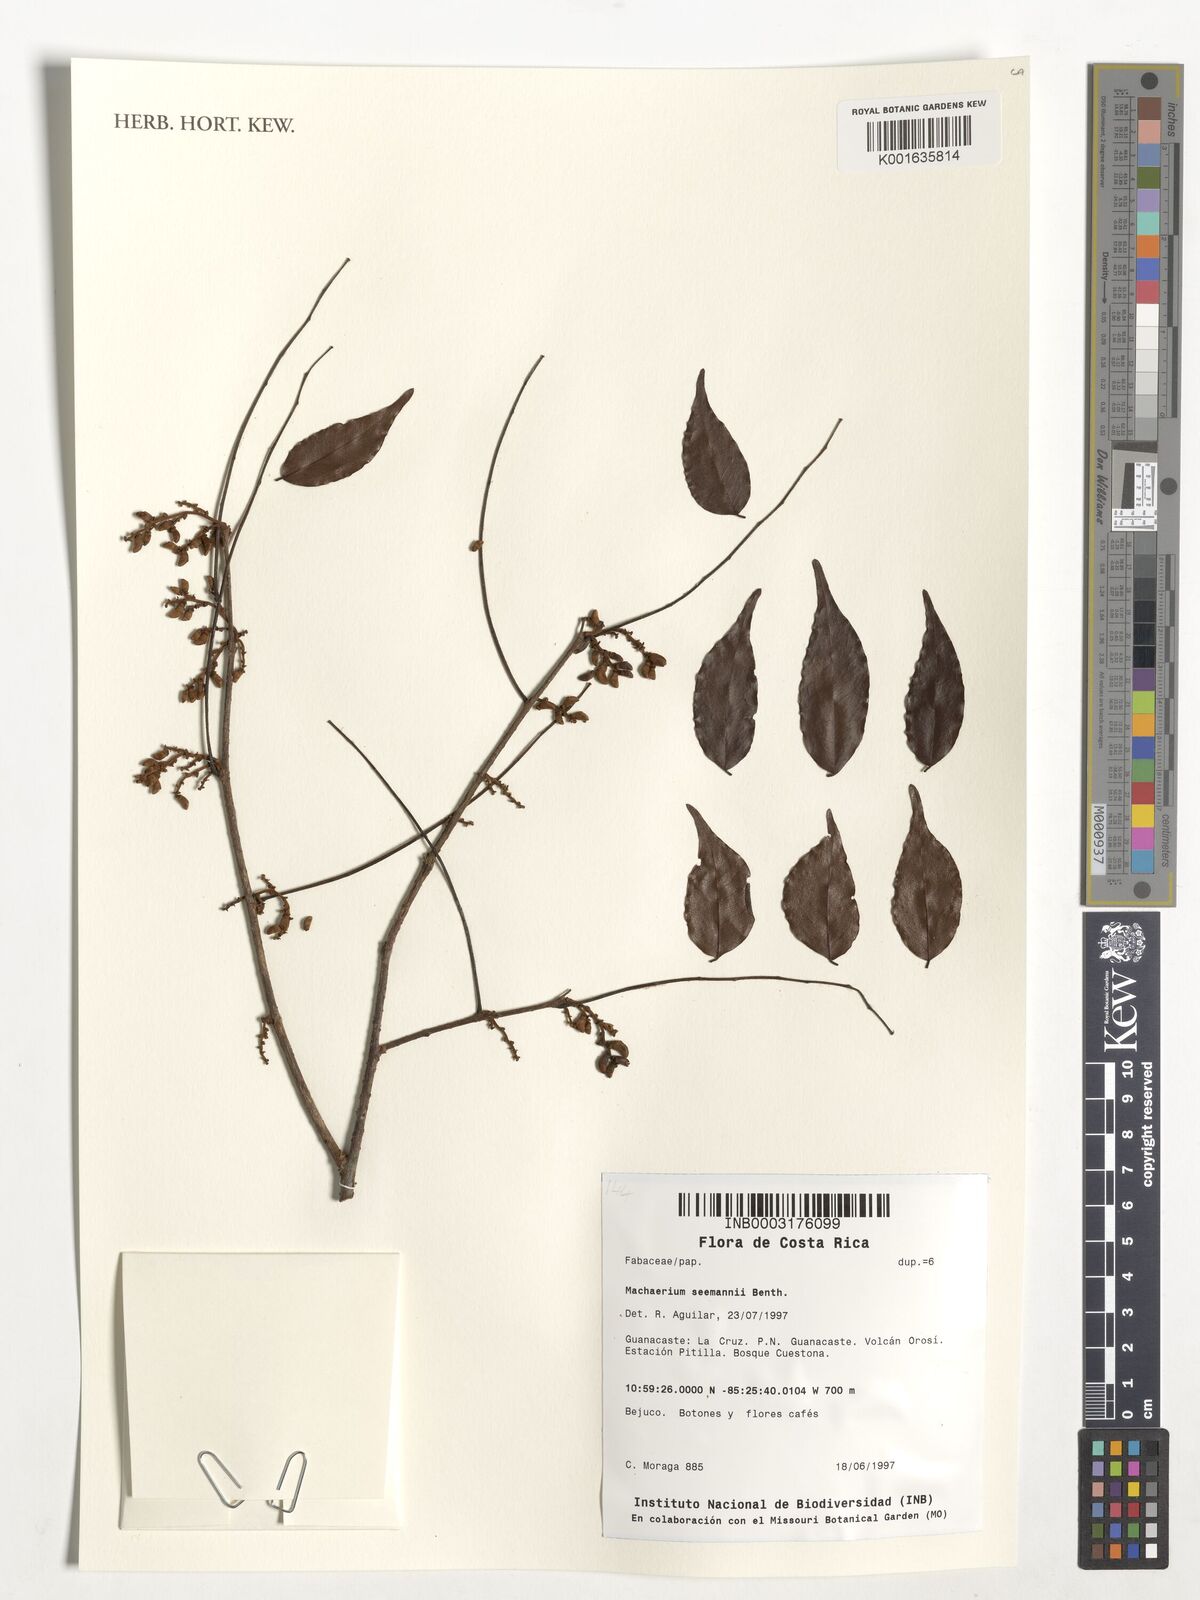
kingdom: Plantae
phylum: Tracheophyta
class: Magnoliopsida
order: Fabales
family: Fabaceae
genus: Machaerium
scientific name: Machaerium seemannii
